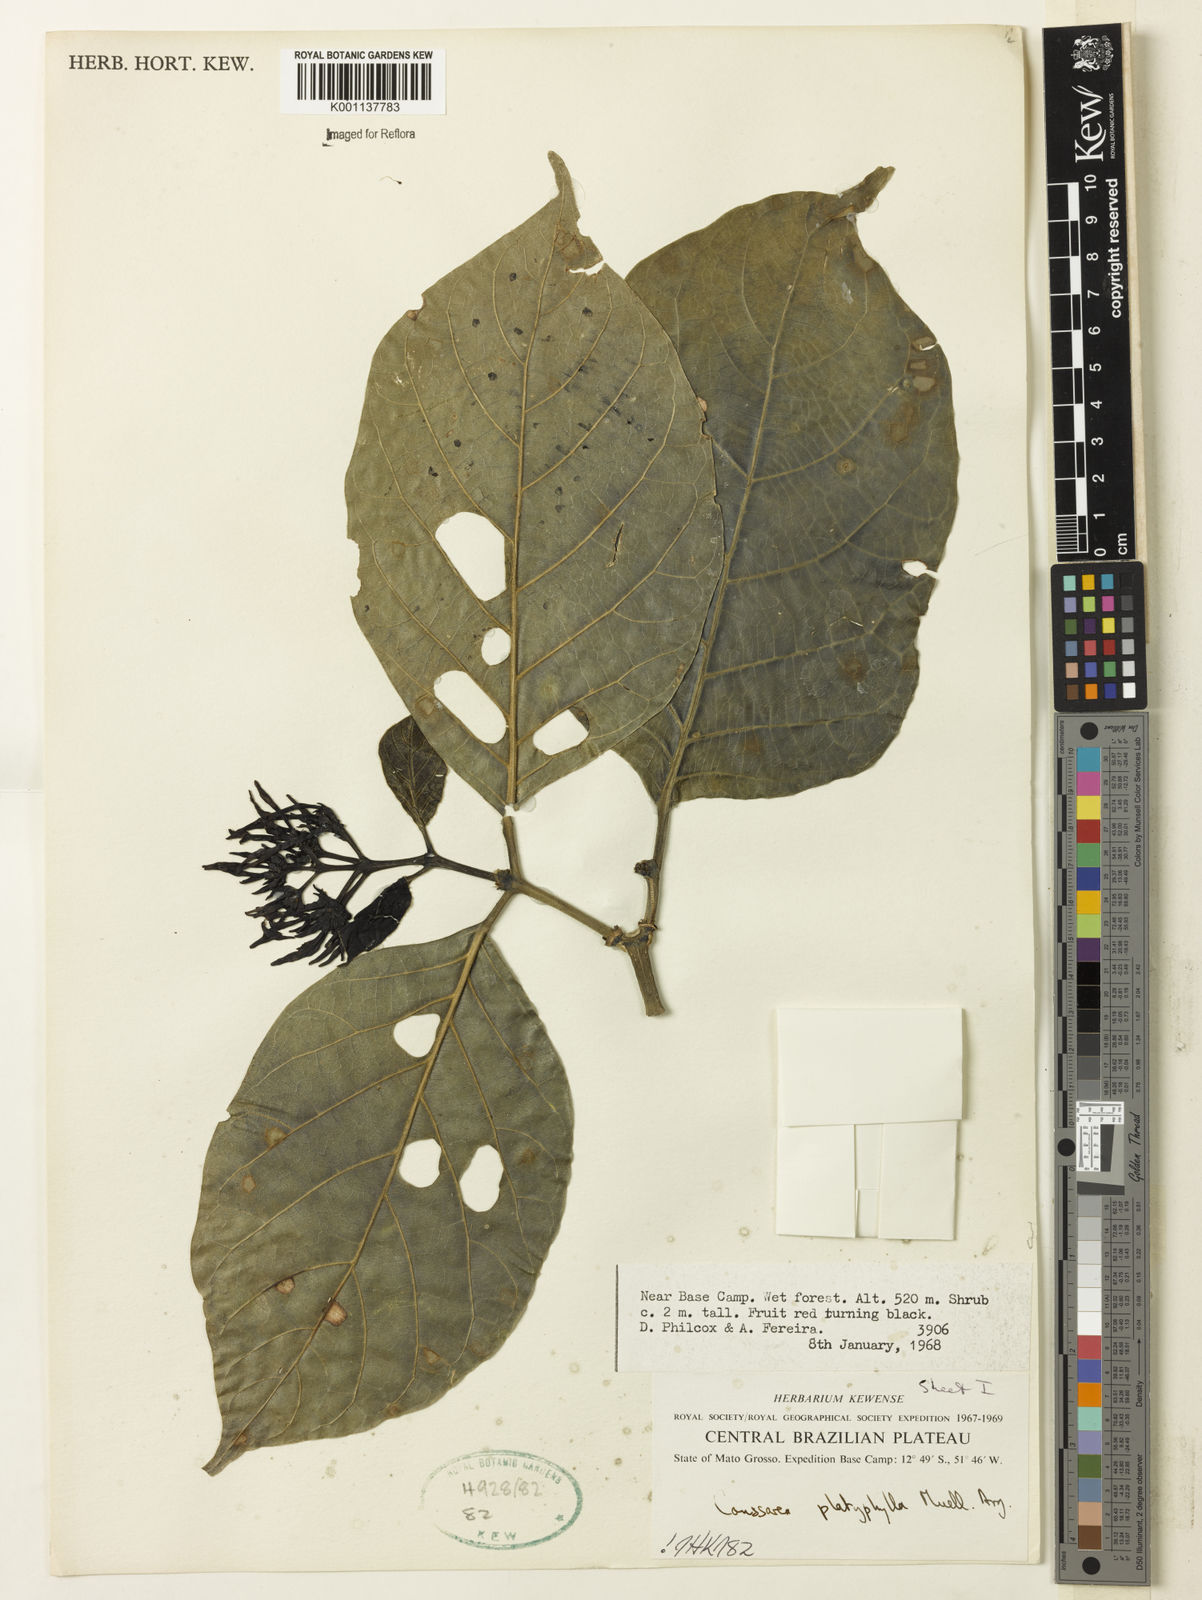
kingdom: Plantae
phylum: Tracheophyta
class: Magnoliopsida
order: Gentianales
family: Rubiaceae
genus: Coussarea
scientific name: Coussarea
